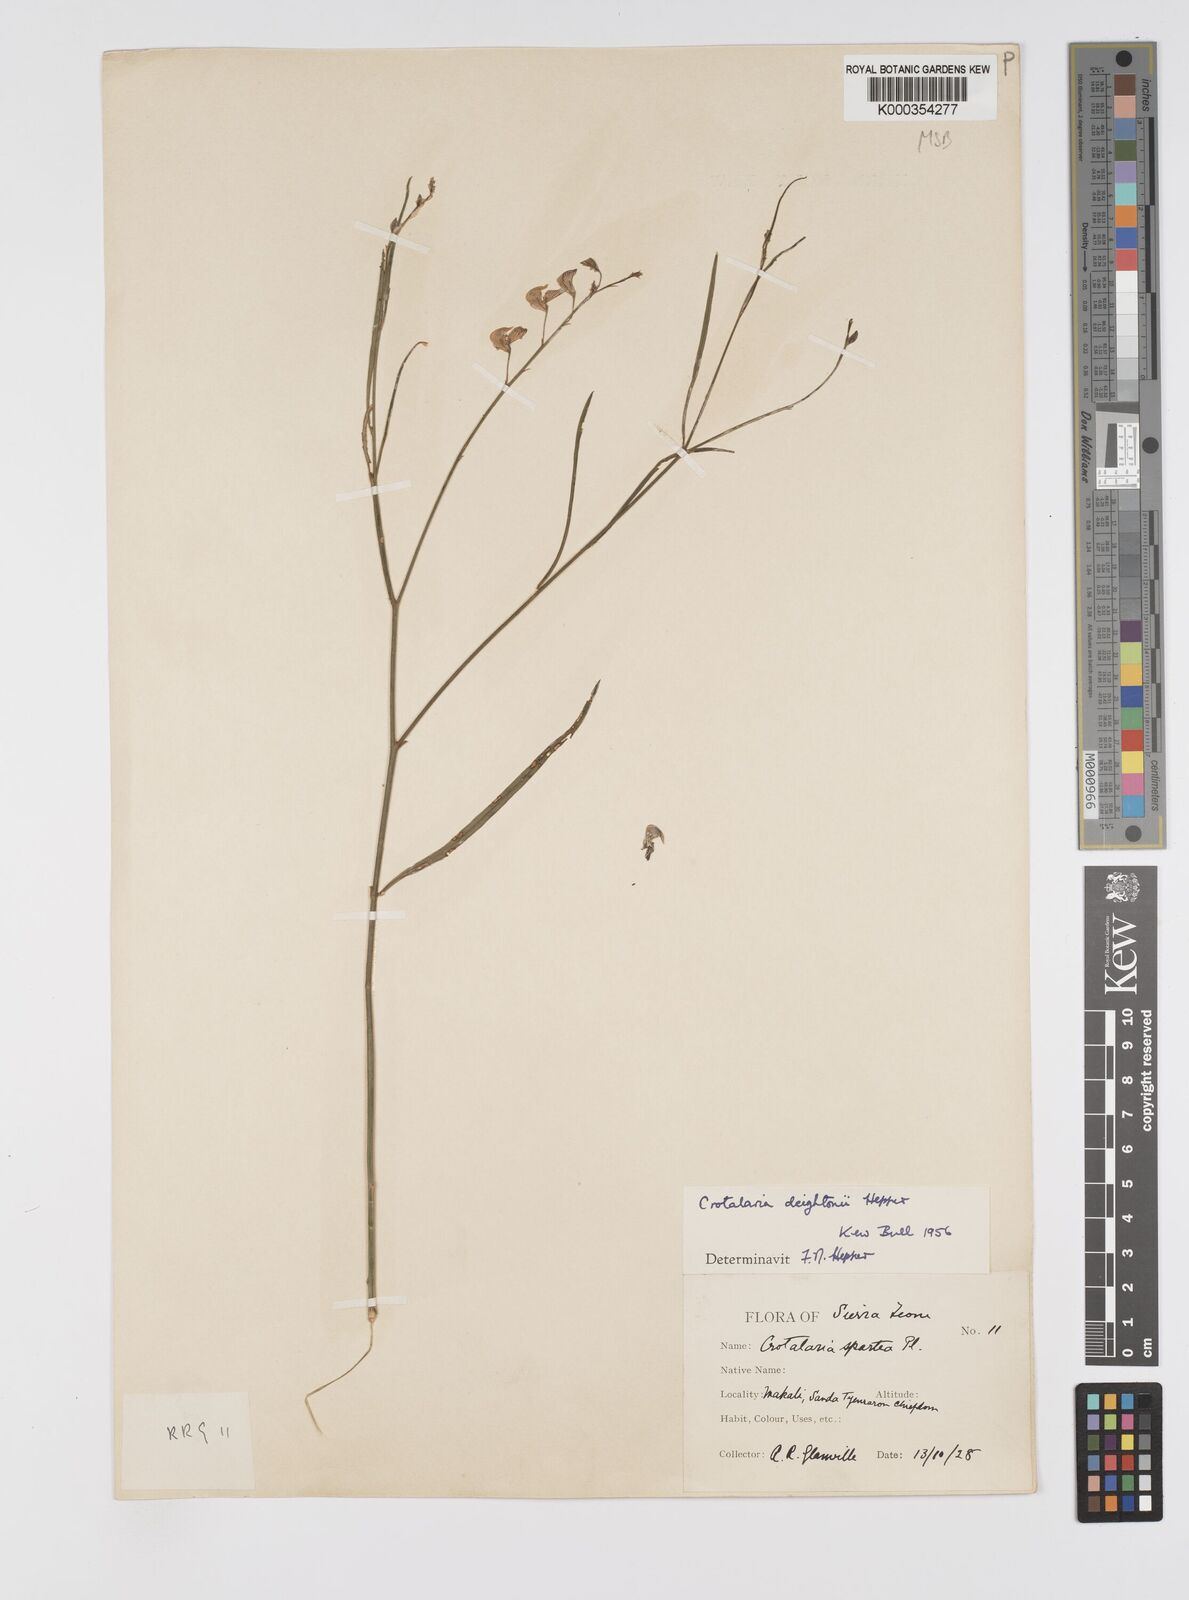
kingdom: Plantae
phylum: Tracheophyta
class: Magnoliopsida
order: Fabales
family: Fabaceae
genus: Crotalaria
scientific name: Crotalaria deightonii
